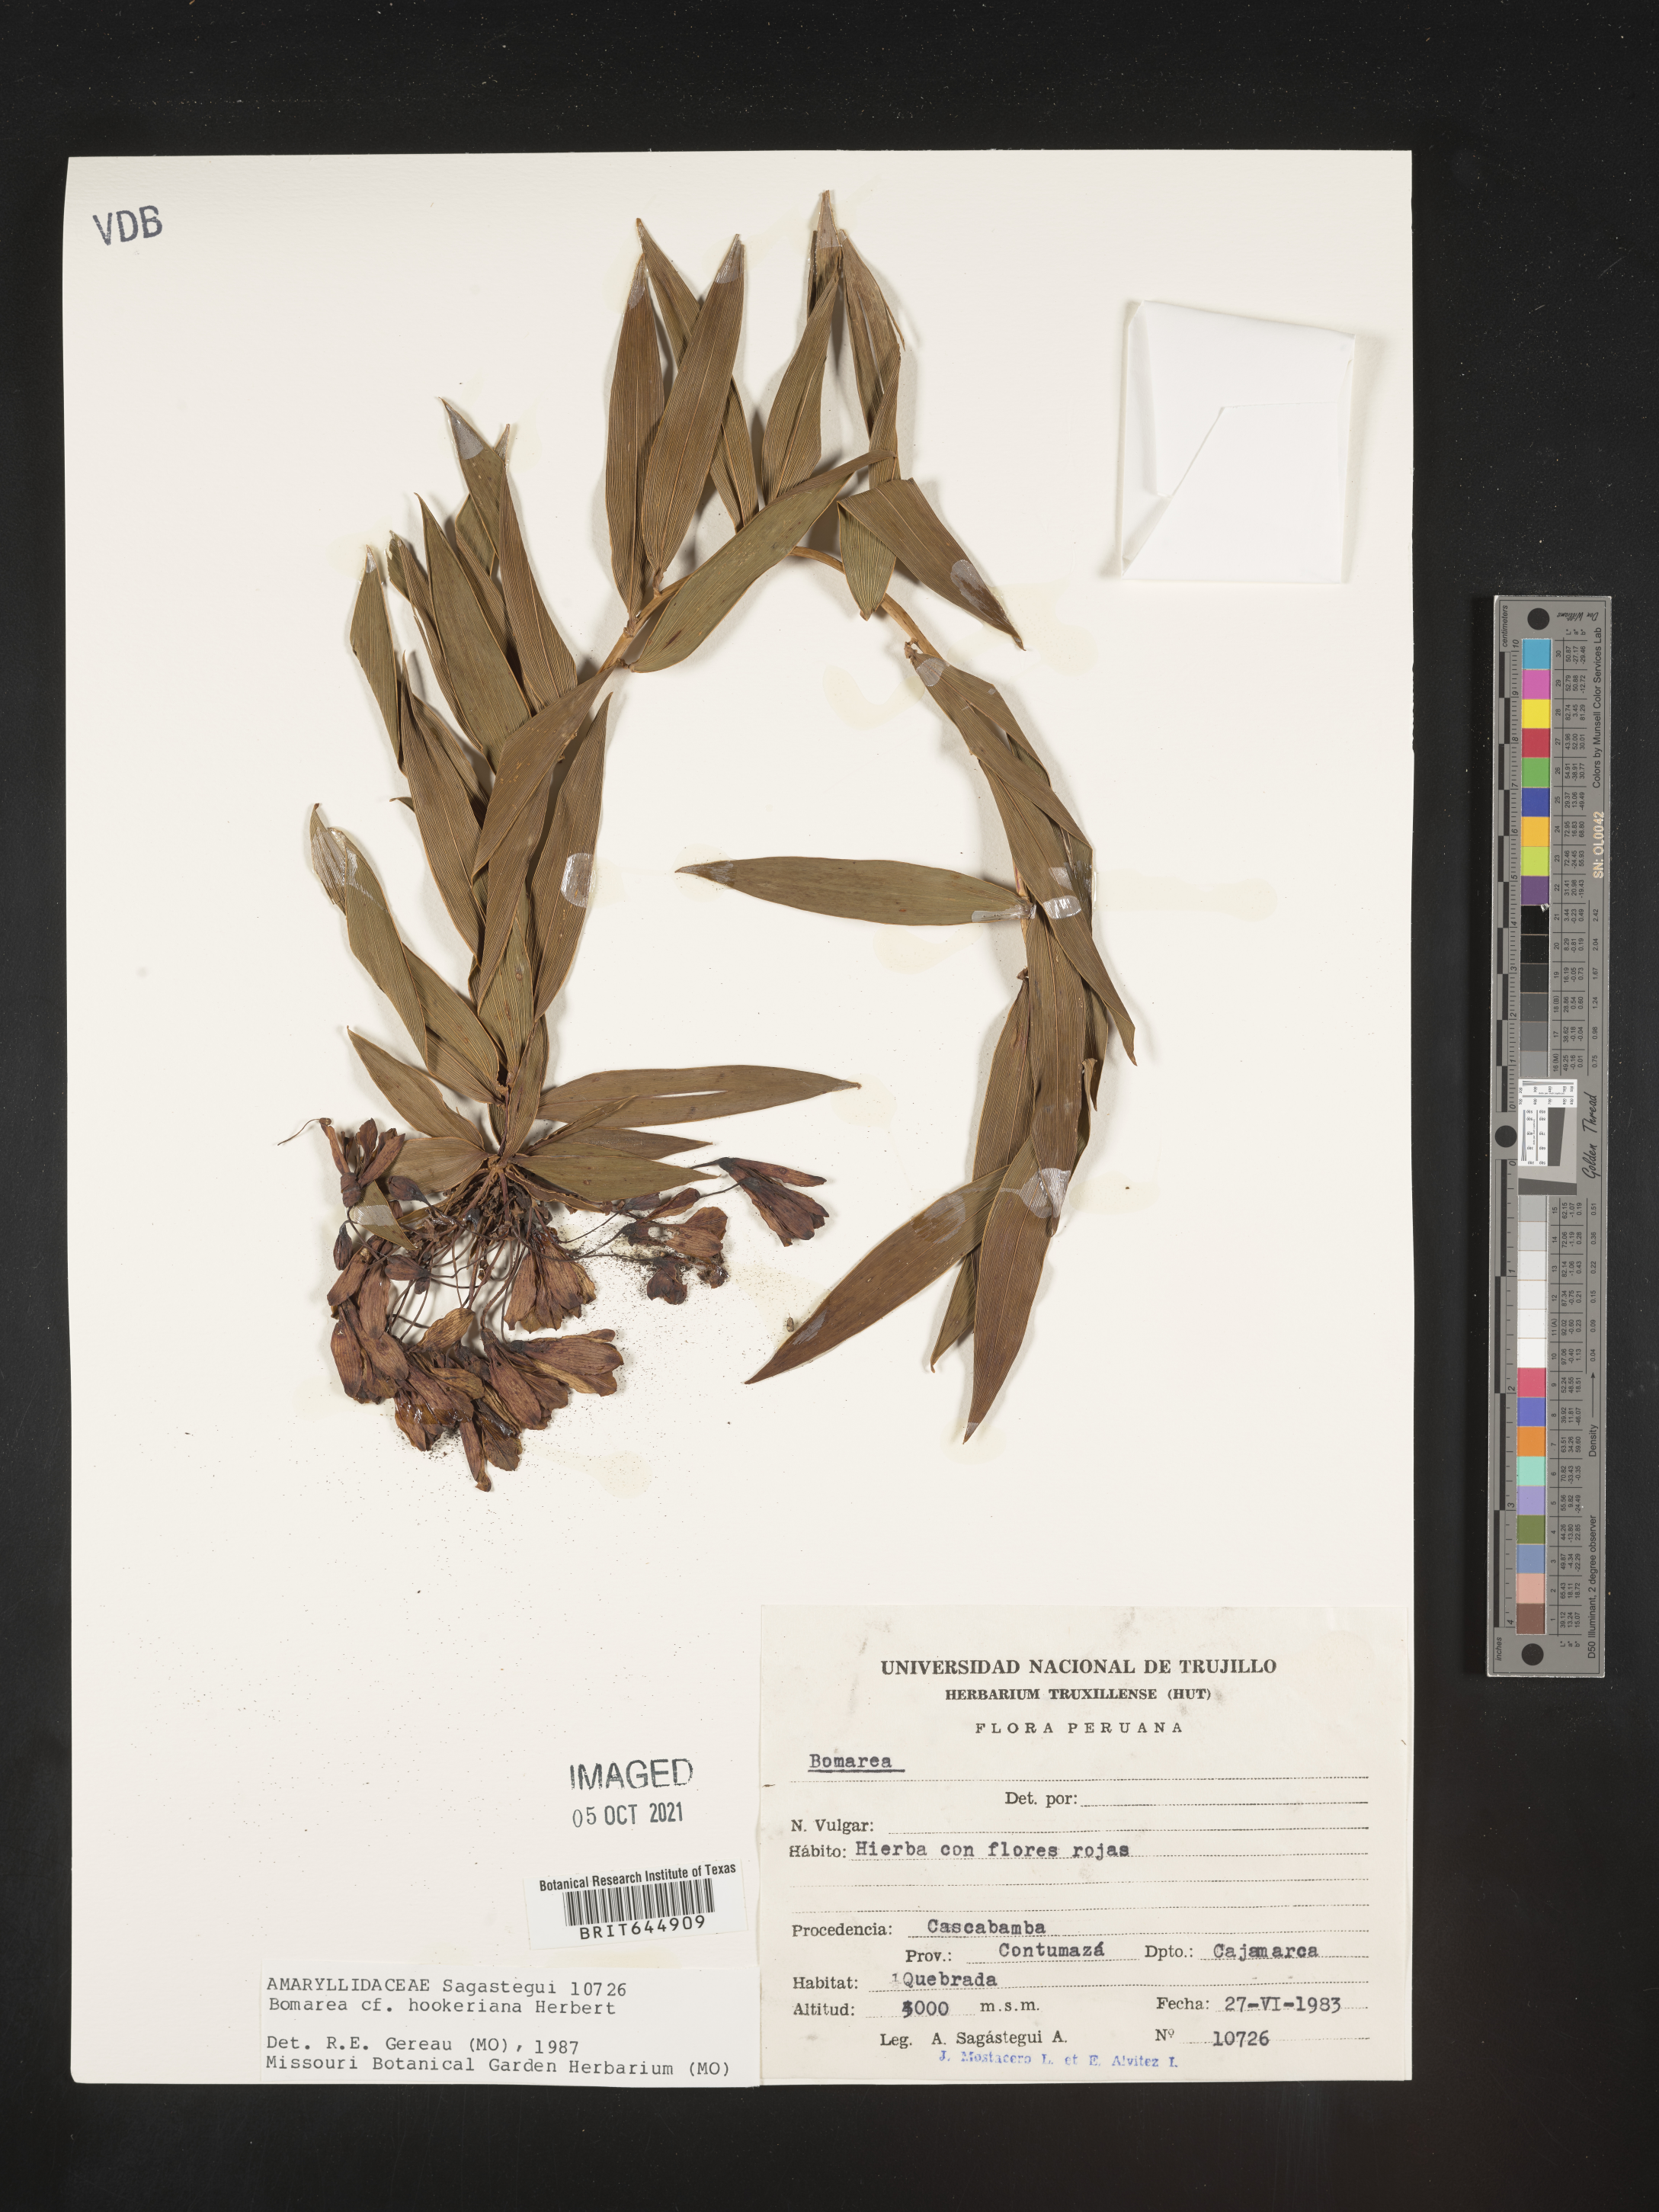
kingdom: Plantae
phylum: Tracheophyta
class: Liliopsida
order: Liliales
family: Alstroemeriaceae
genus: Bomarea
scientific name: Bomarea densiflora
